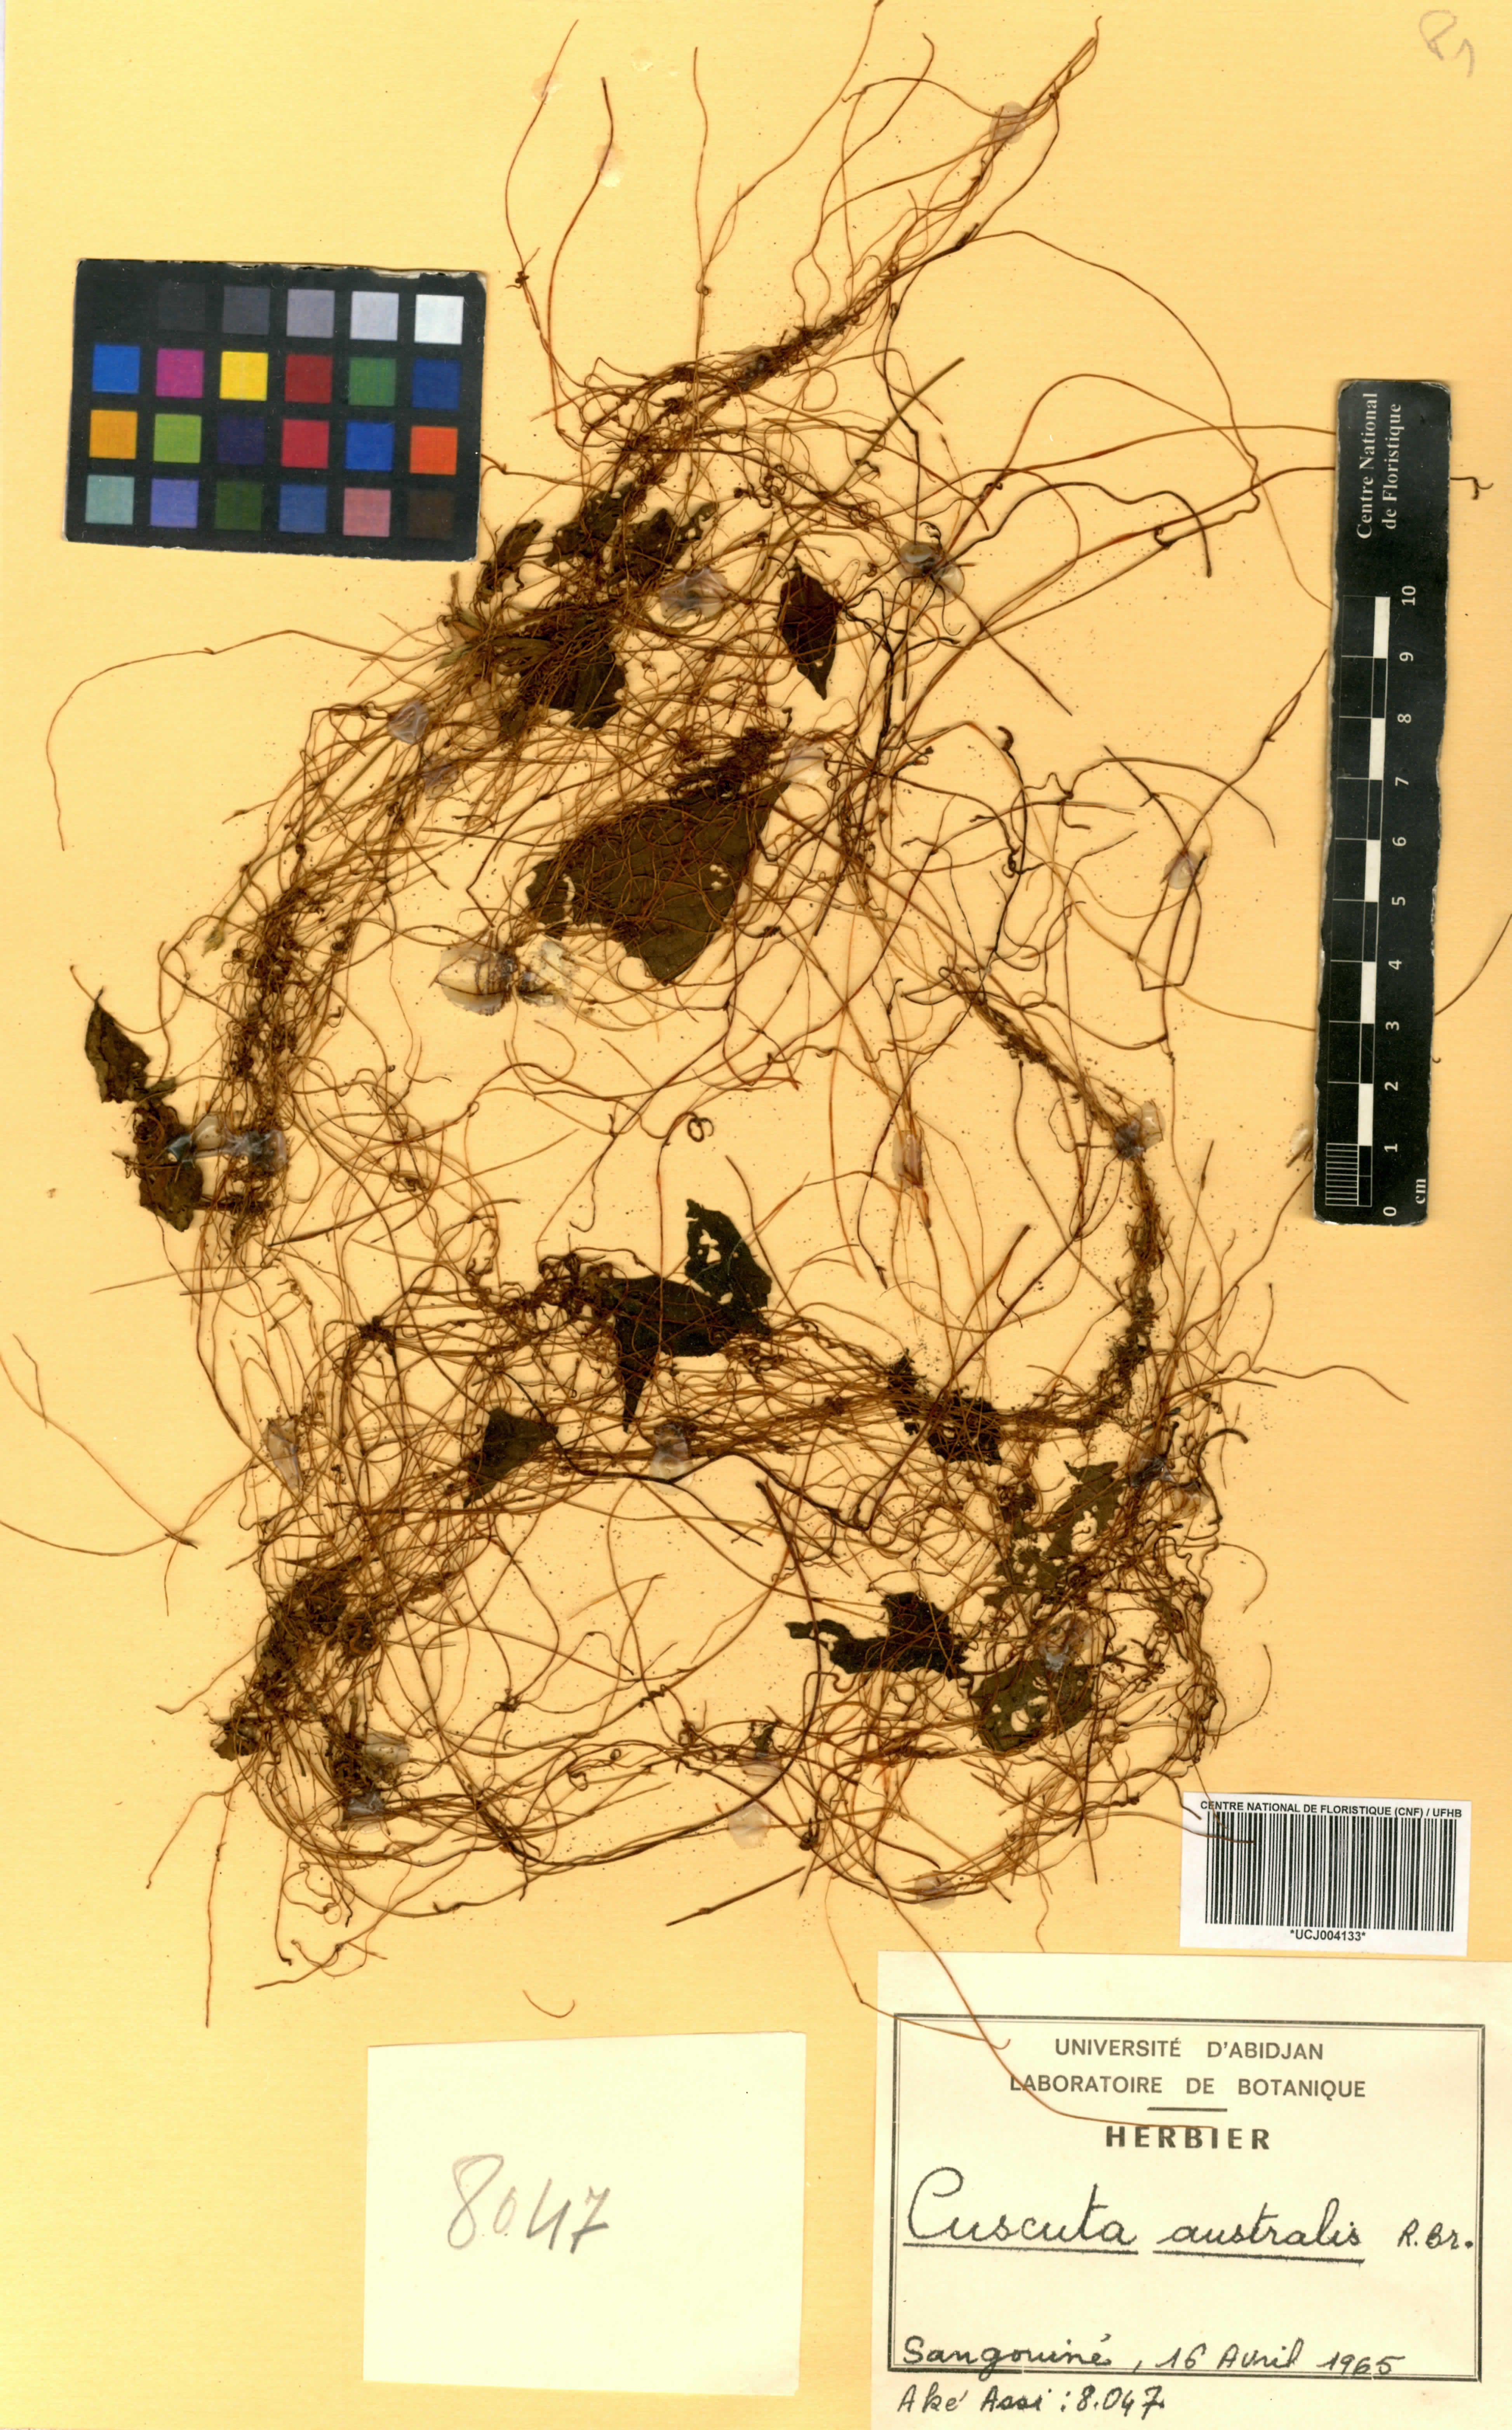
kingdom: Plantae
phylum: Tracheophyta
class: Magnoliopsida
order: Solanales
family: Convolvulaceae
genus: Cuscuta
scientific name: Cuscuta australis
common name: Australian dodder
